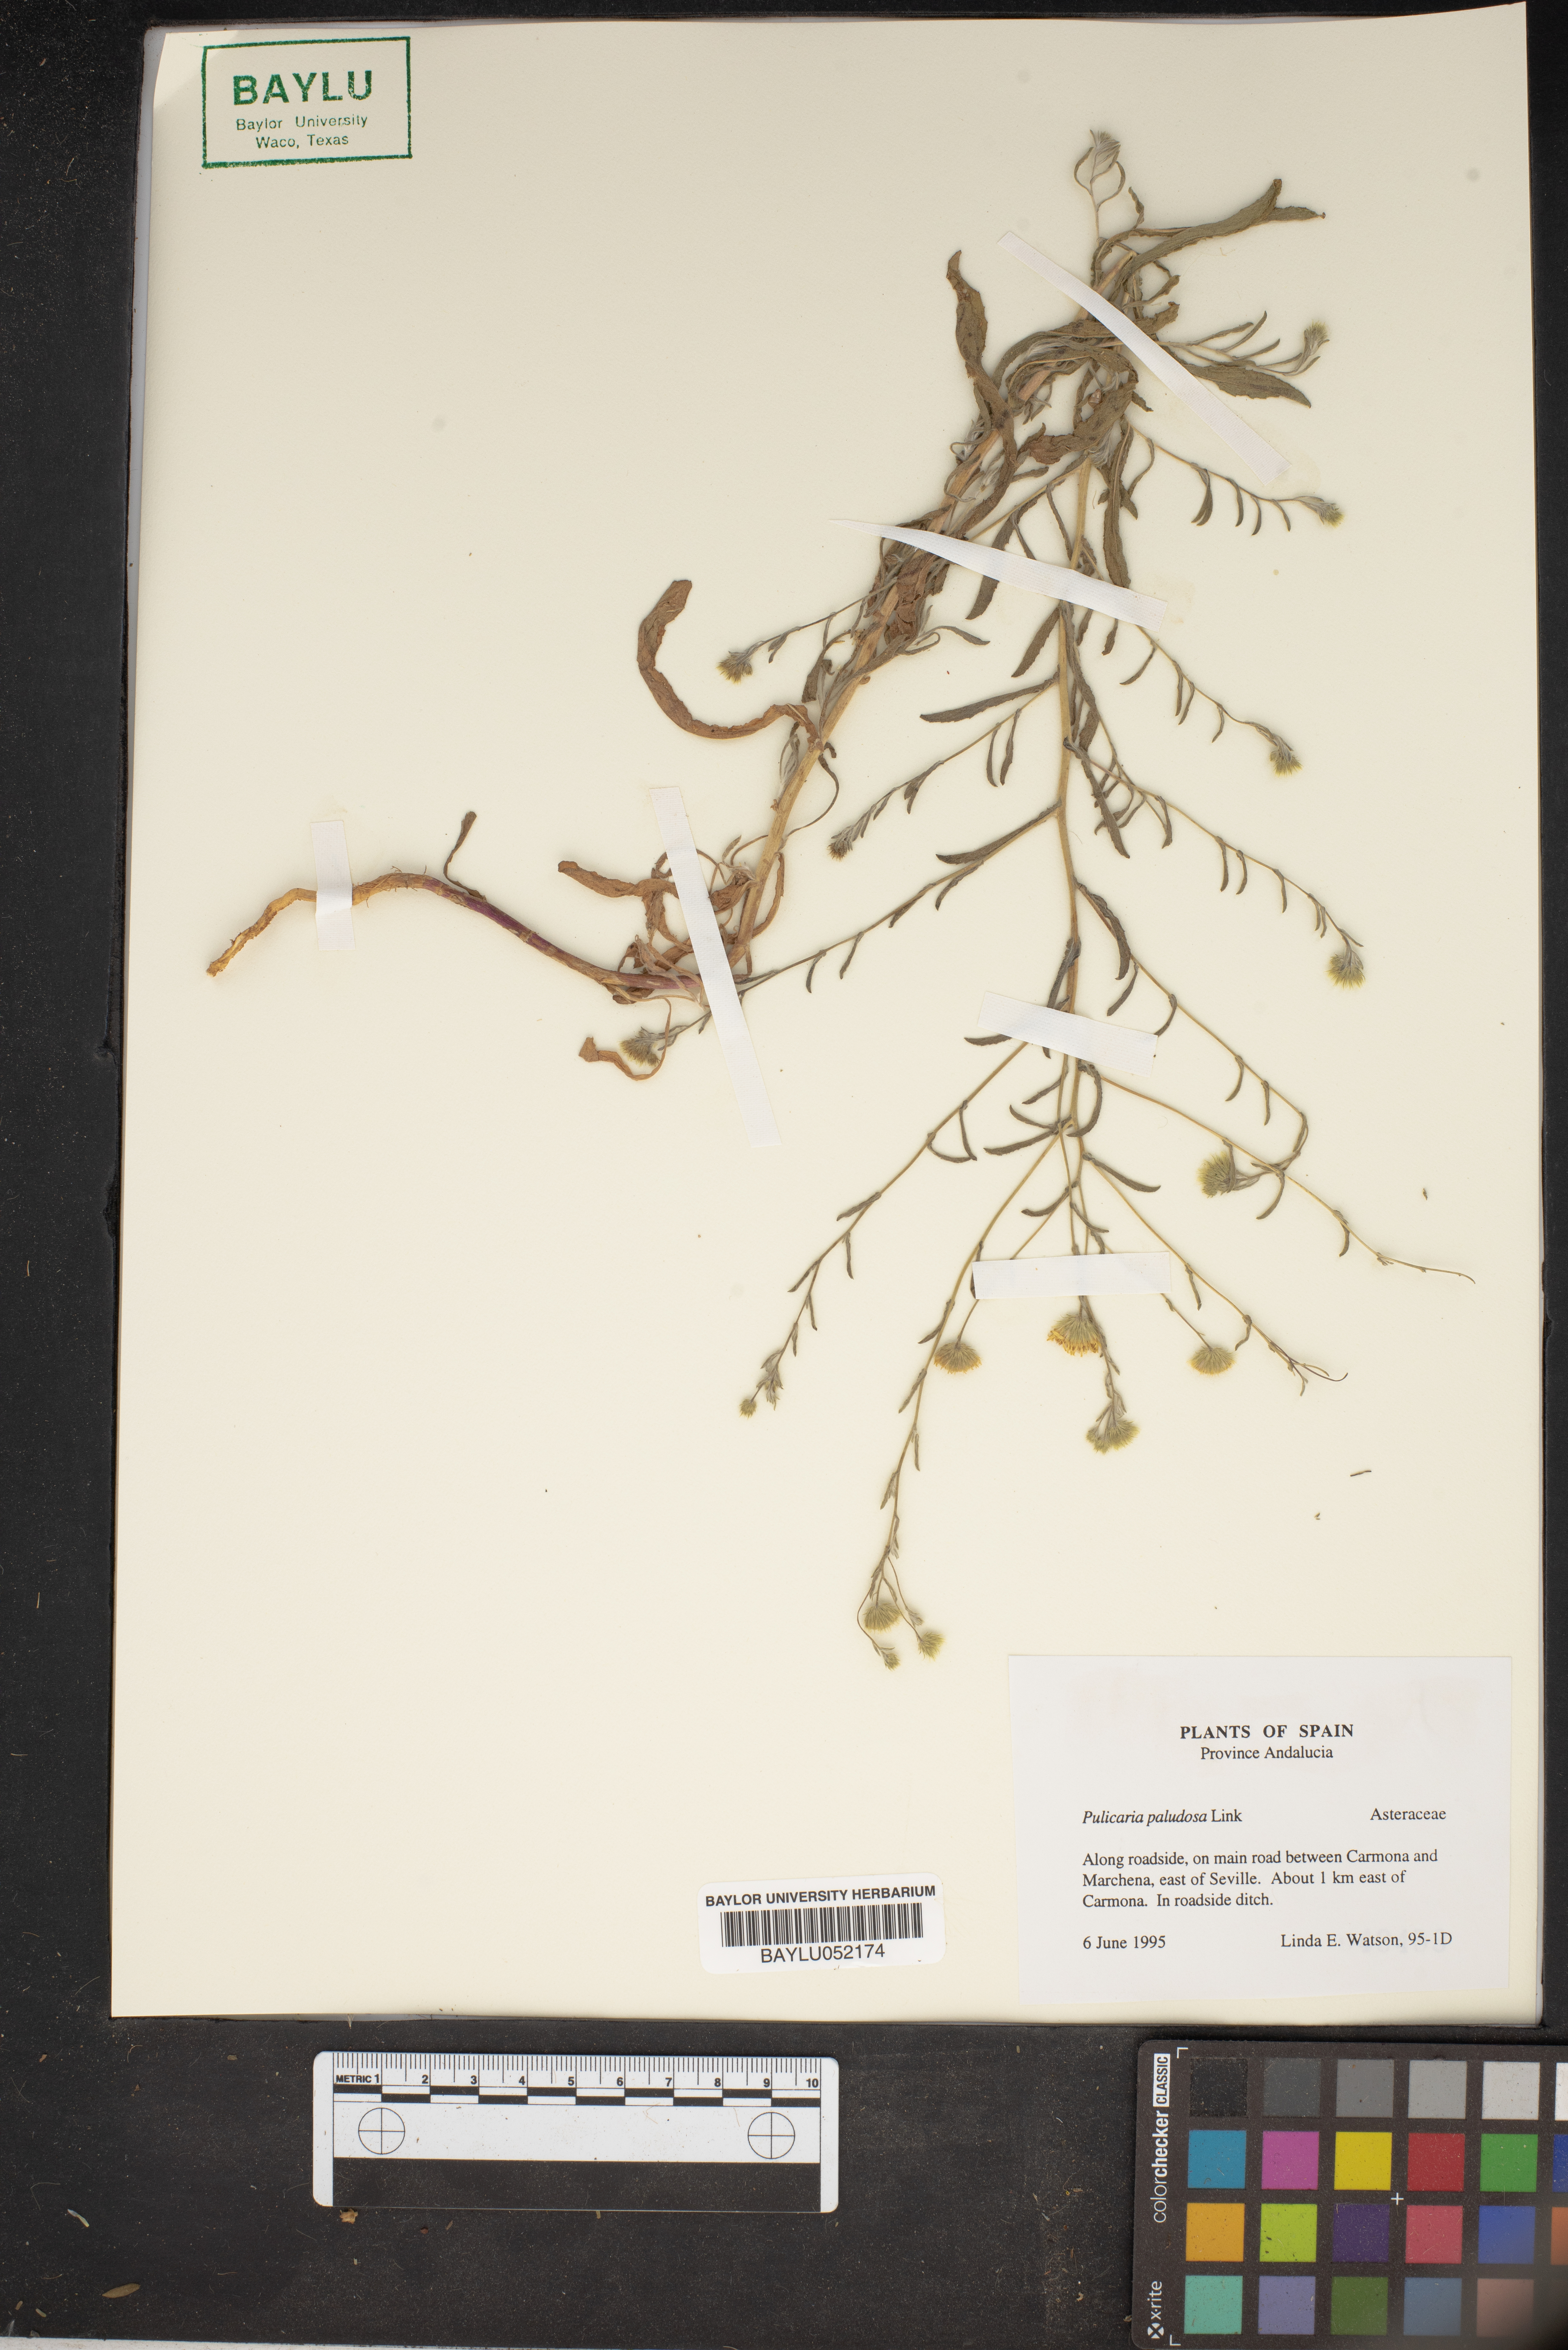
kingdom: Plantae
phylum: Tracheophyta
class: Magnoliopsida
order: Asterales
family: Asteraceae
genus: Pulicaria
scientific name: Pulicaria arabica
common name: Ladies' false fleabane
